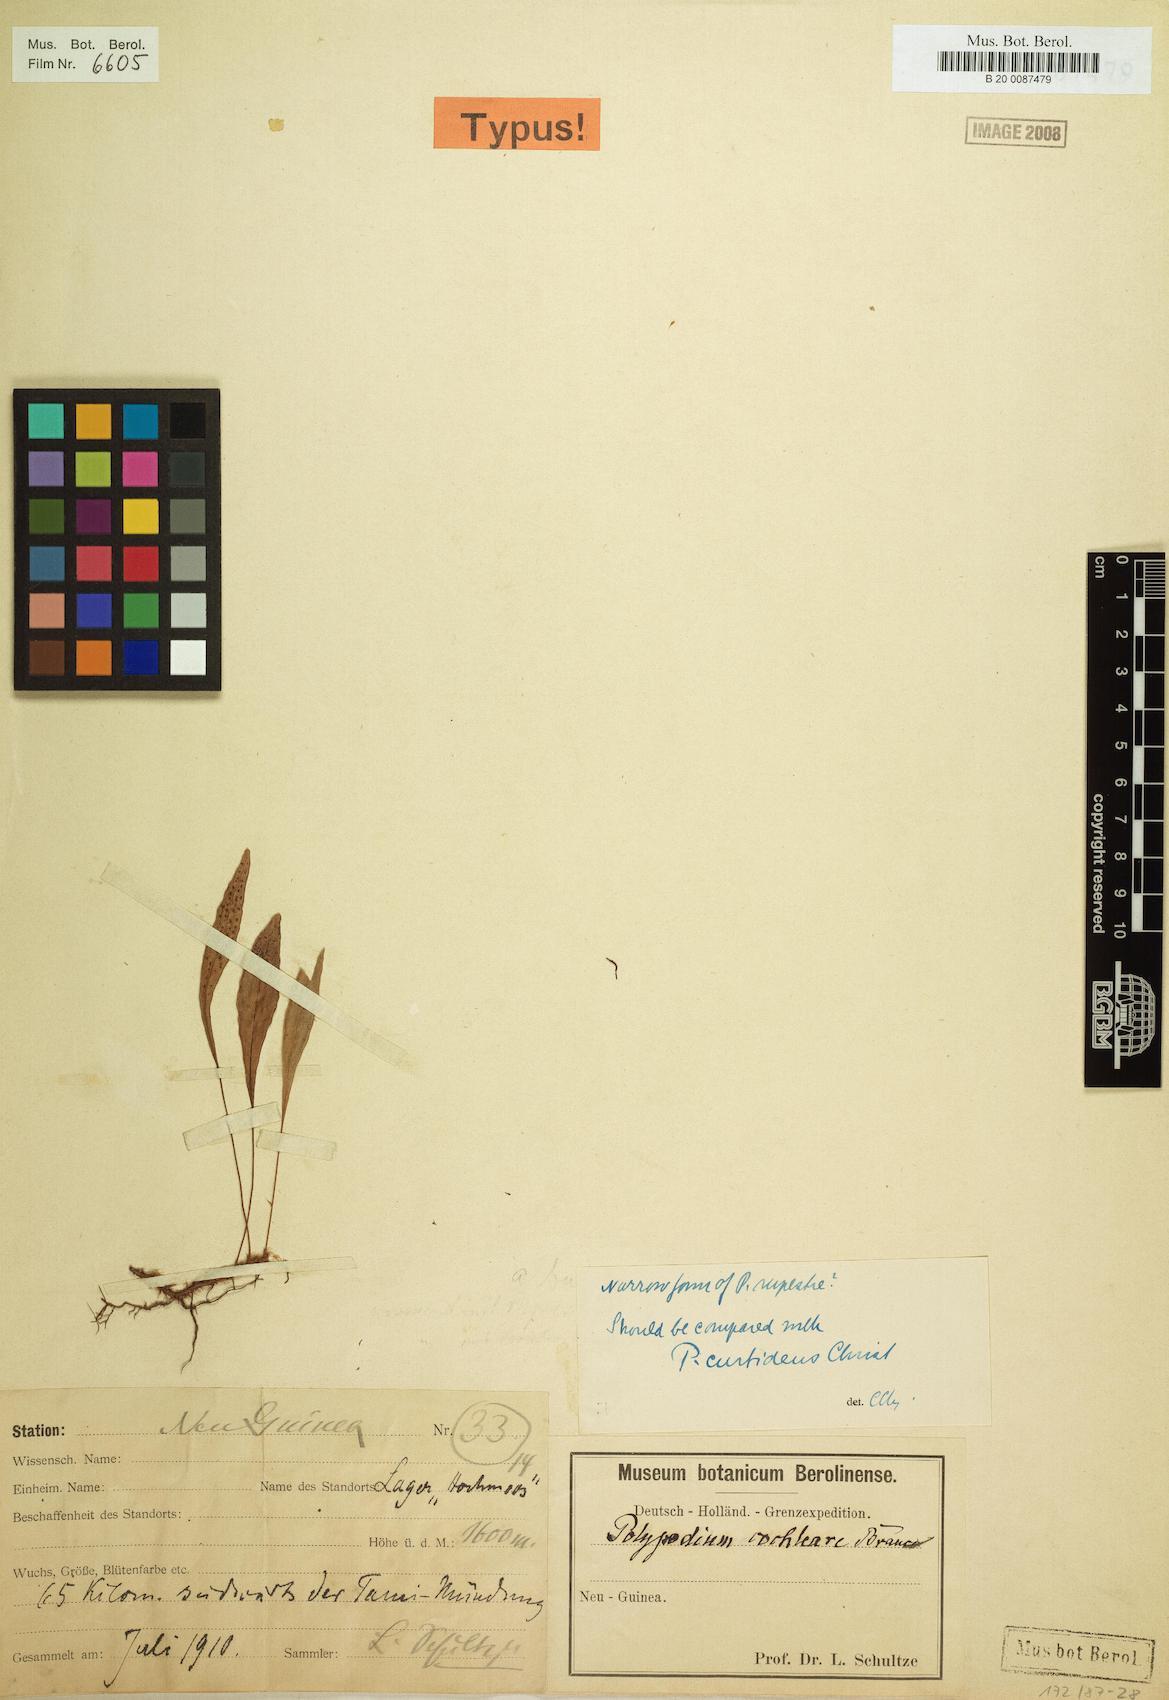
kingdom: Plantae
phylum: Tracheophyta
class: Polypodiopsida
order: Polypodiales
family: Polypodiaceae
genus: Selliguea
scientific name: Selliguea enervis
